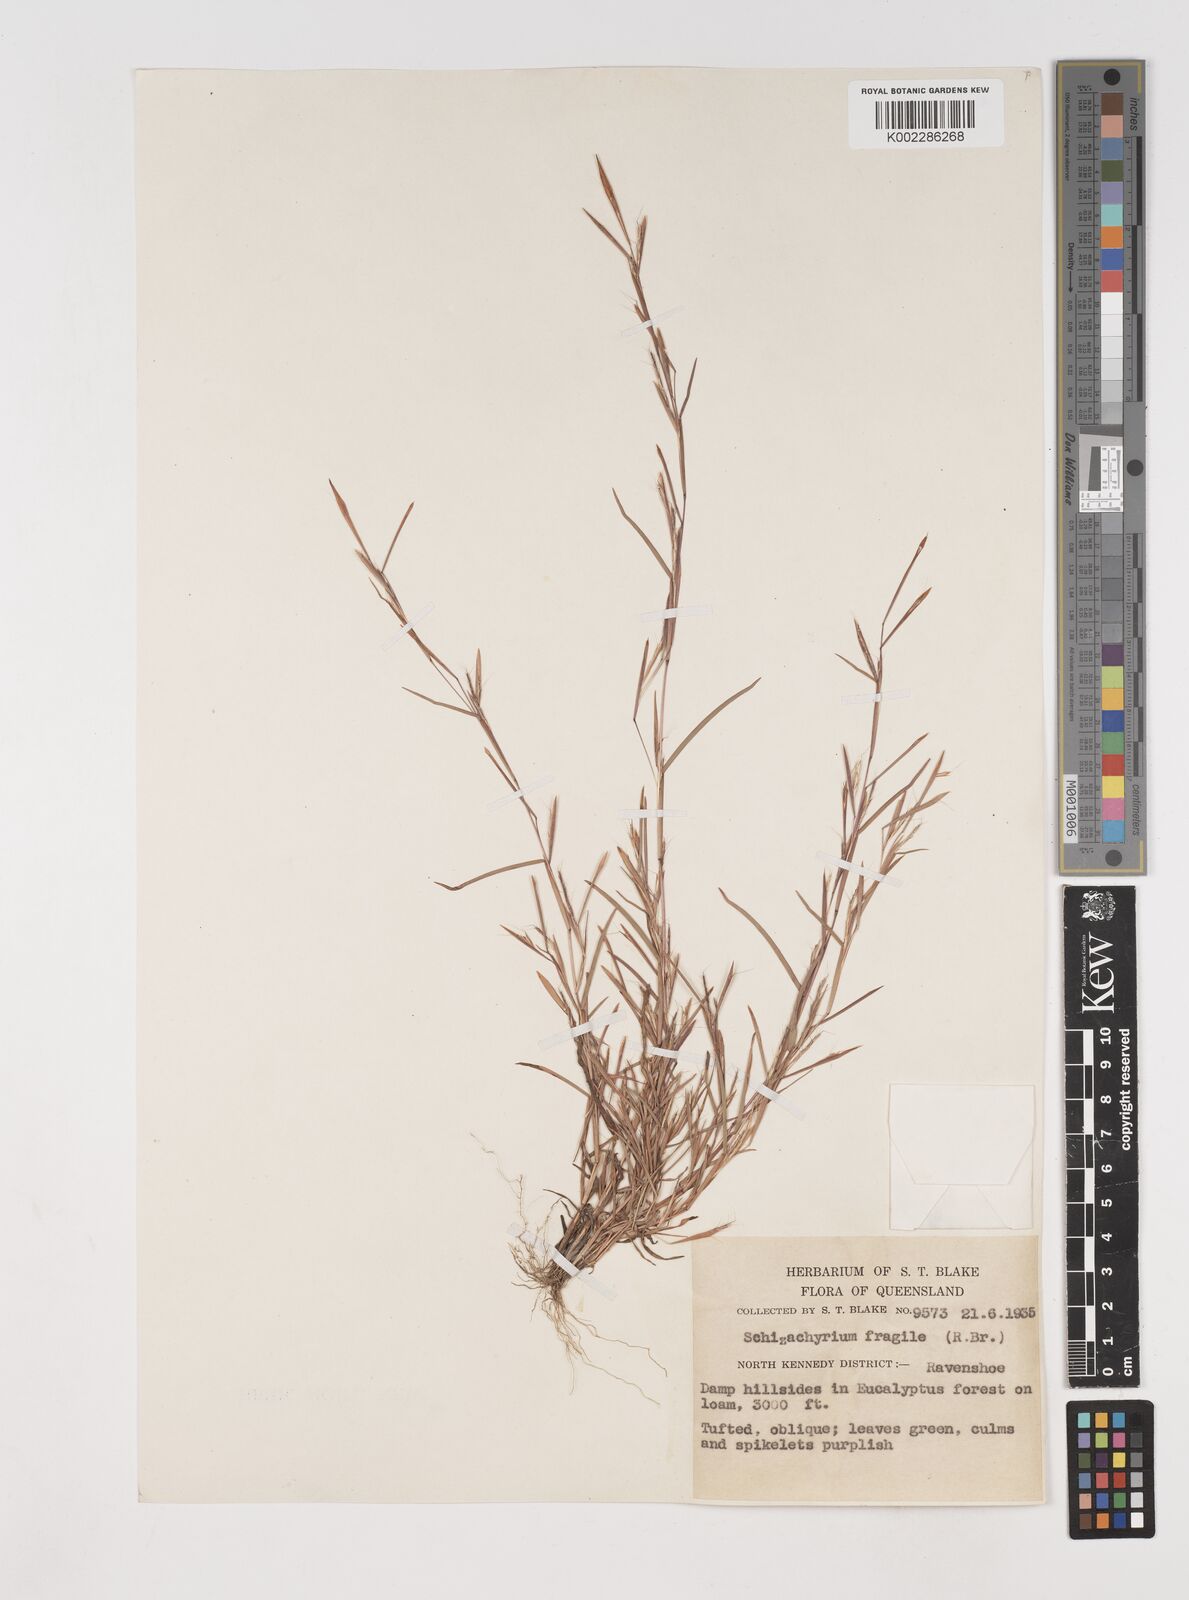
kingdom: Plantae
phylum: Tracheophyta
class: Liliopsida
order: Poales
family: Poaceae
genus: Schizachyrium
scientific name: Schizachyrium pseudeulalia
